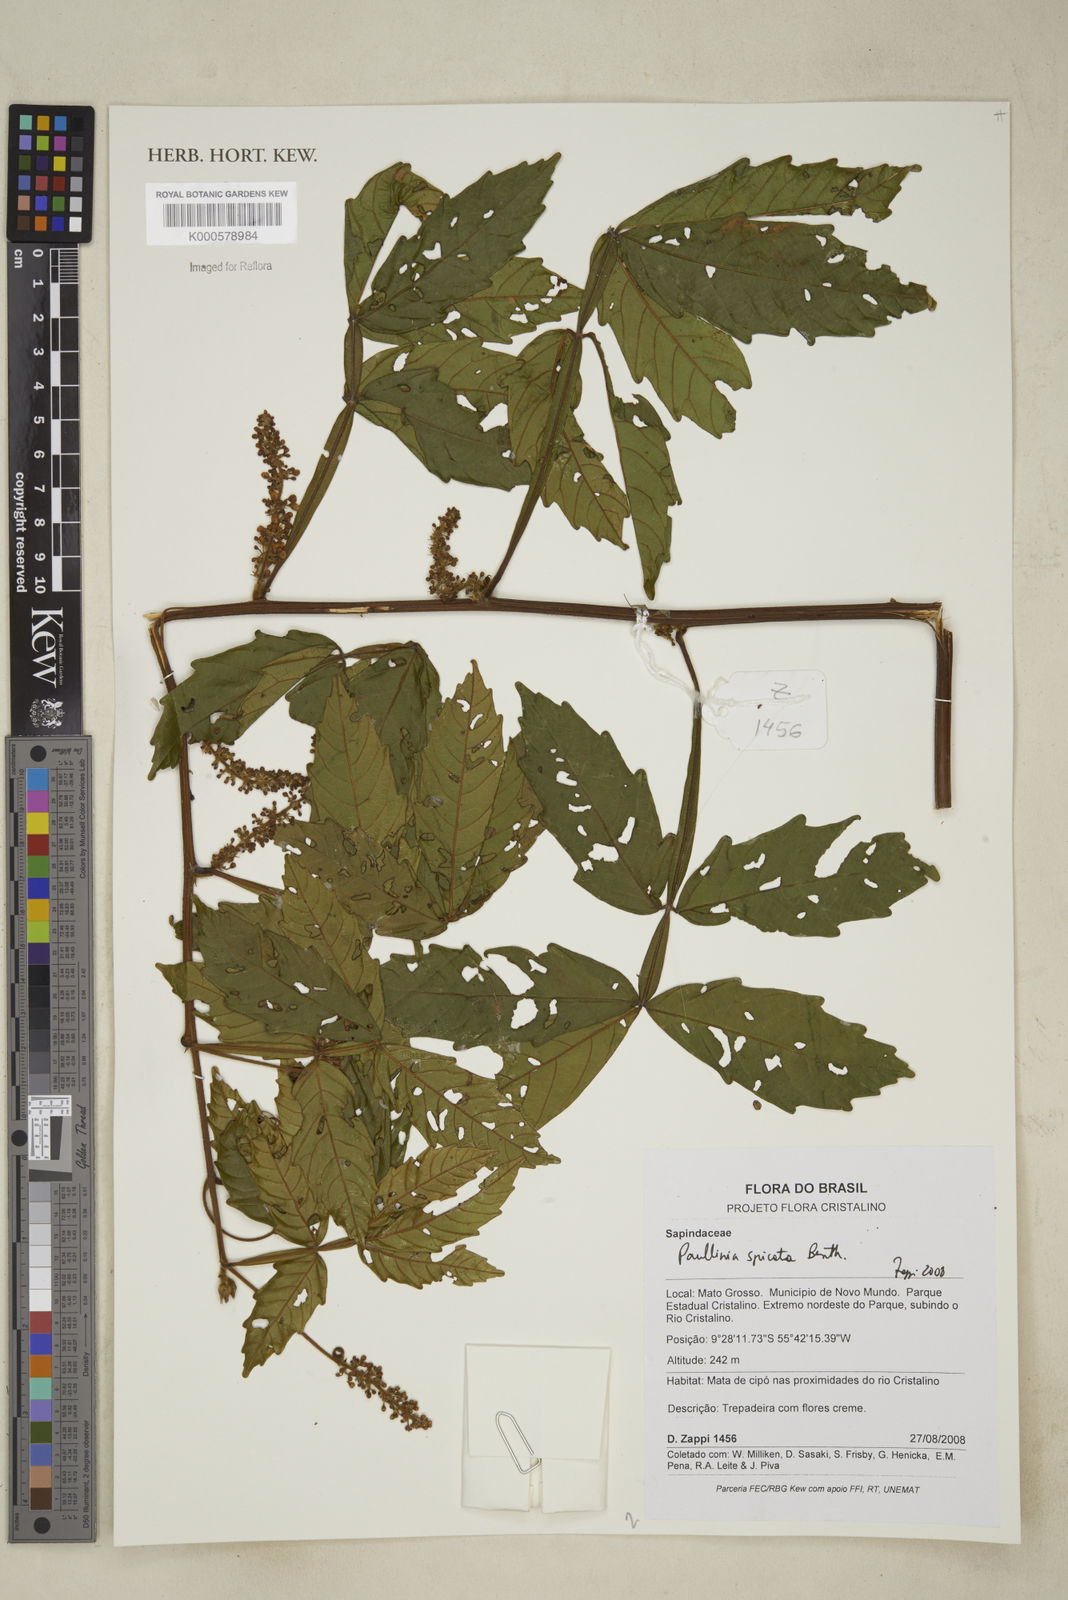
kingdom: Plantae
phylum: Tracheophyta
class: Magnoliopsida
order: Sapindales
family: Sapindaceae
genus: Paullinia
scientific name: Paullinia spicata
